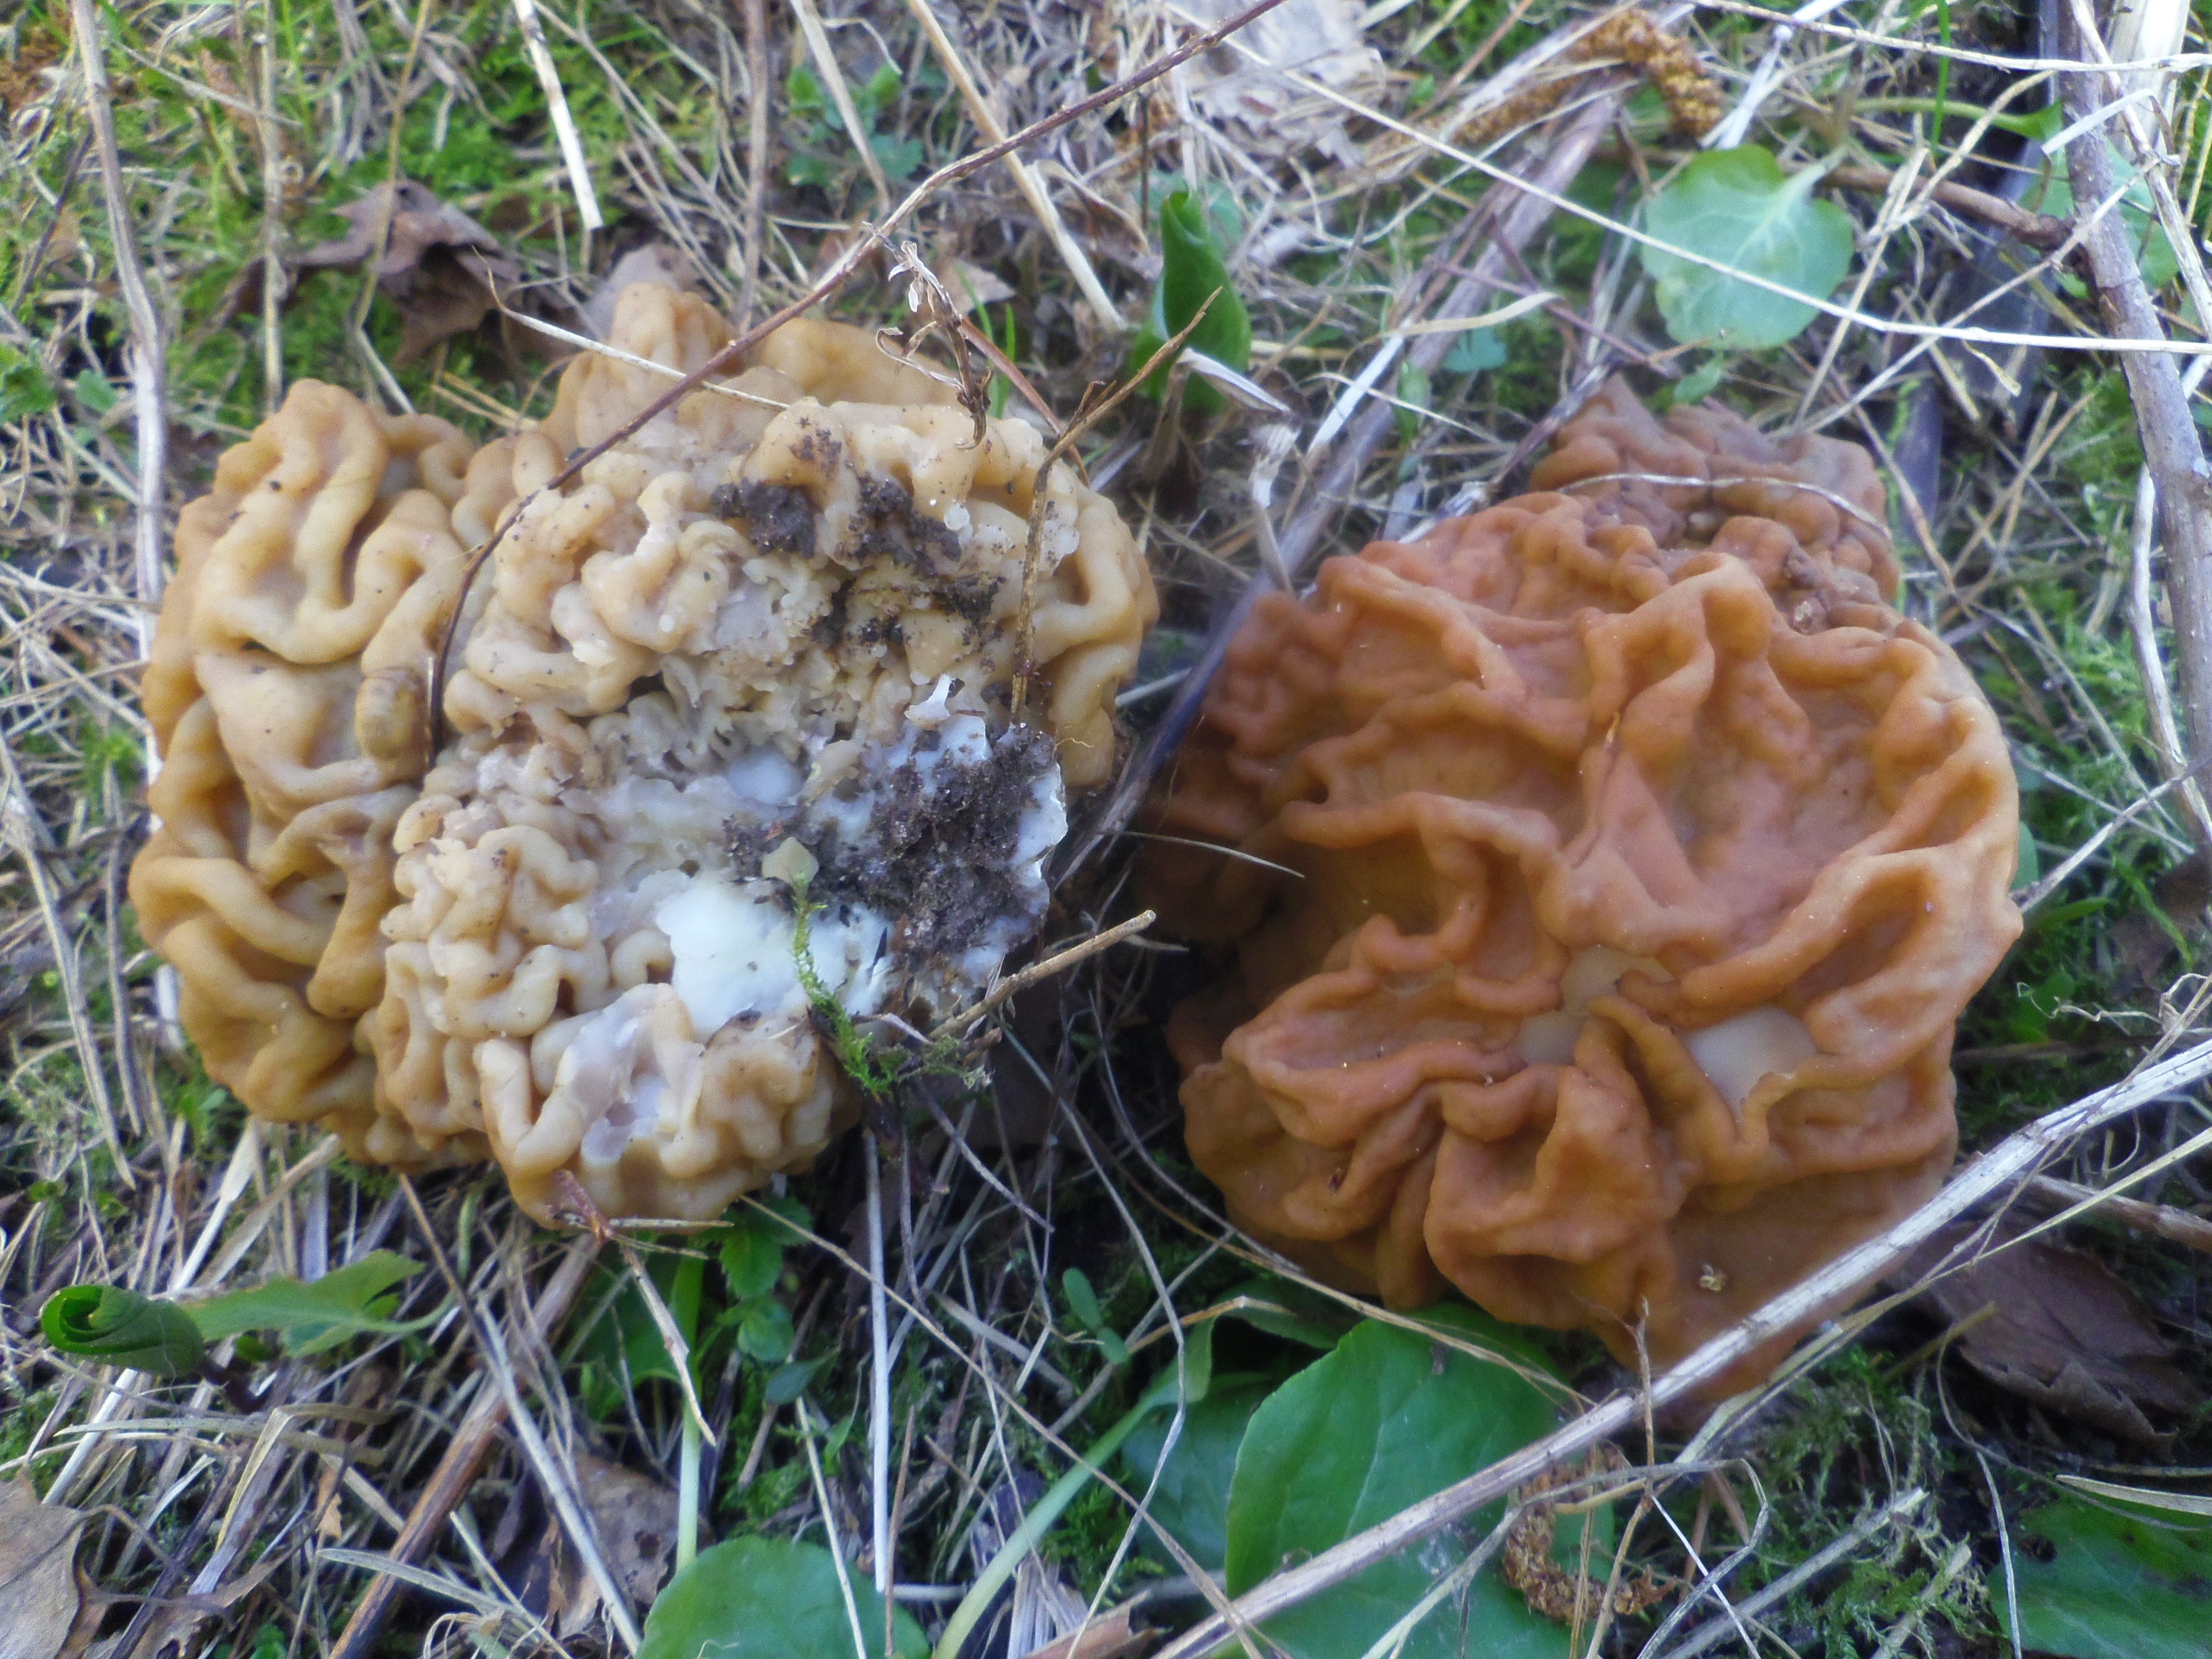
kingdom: Fungi
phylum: Ascomycota
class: Pezizomycetes
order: Pezizales
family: Discinaceae
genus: Gyromitra
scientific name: Gyromitra gigas
